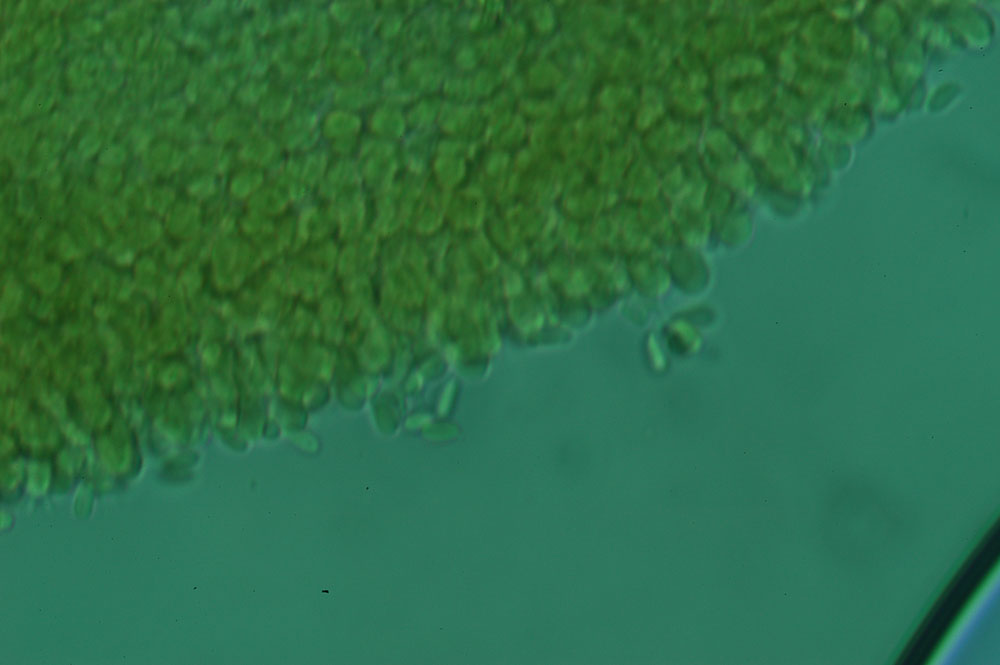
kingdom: Fungi
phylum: Basidiomycota
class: Agaricomycetes
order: Agaricales
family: Clavariaceae
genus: Mucronella
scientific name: Mucronella
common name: hængepig
